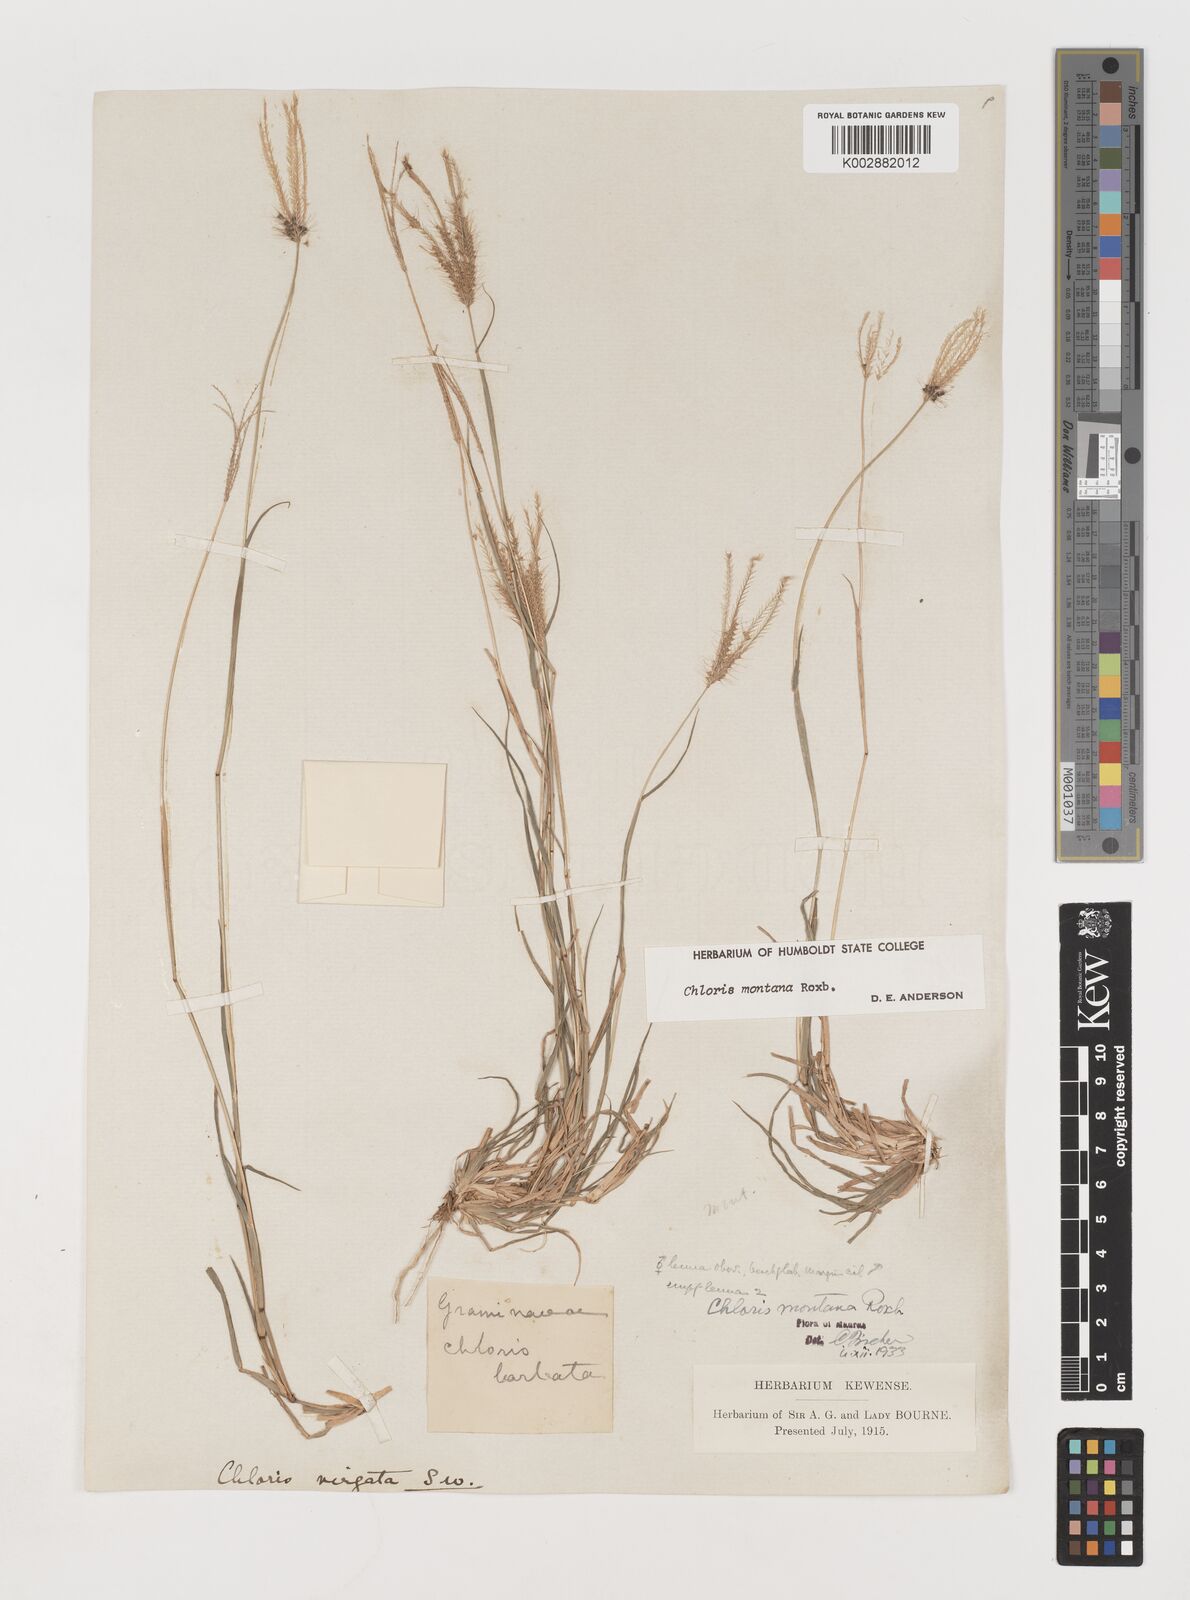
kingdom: Plantae
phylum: Tracheophyta
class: Liliopsida
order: Poales
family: Poaceae
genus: Chloris
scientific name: Chloris montana
